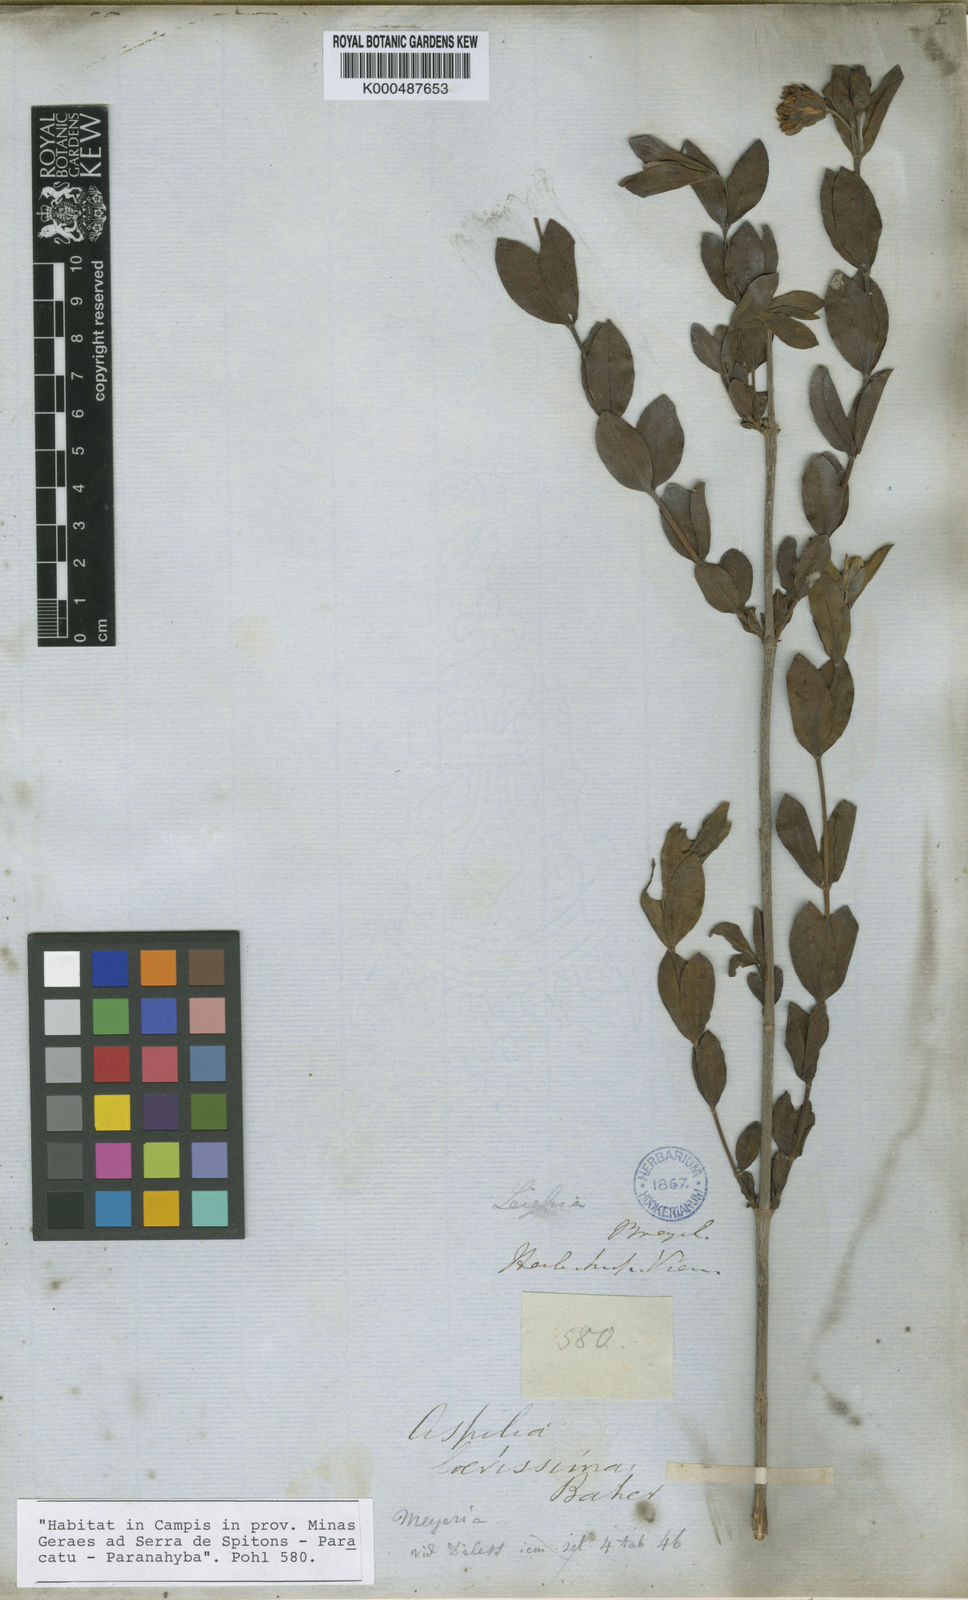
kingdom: Plantae
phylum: Tracheophyta
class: Magnoliopsida
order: Asterales
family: Asteraceae
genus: Wedelia
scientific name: Wedelia laevissima
